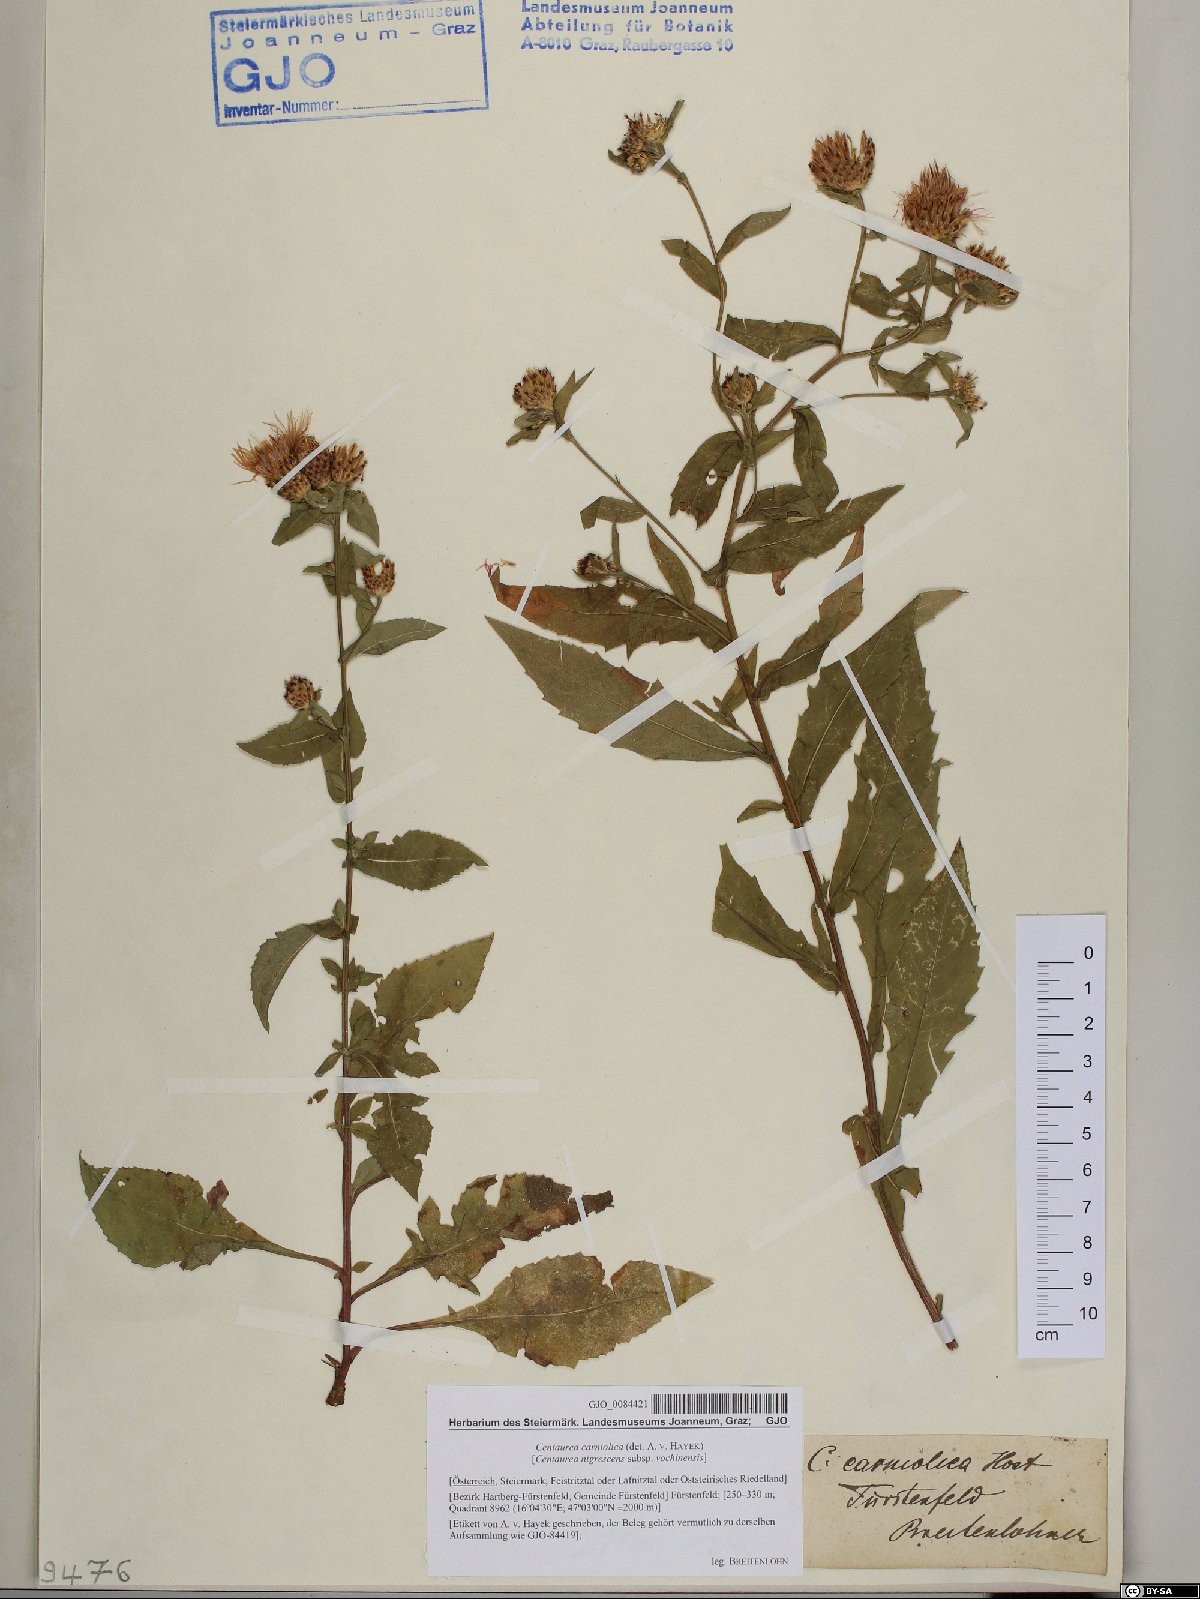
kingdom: Plantae
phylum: Tracheophyta
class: Magnoliopsida
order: Asterales
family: Asteraceae
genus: Centaurea
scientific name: Centaurea carniolica
